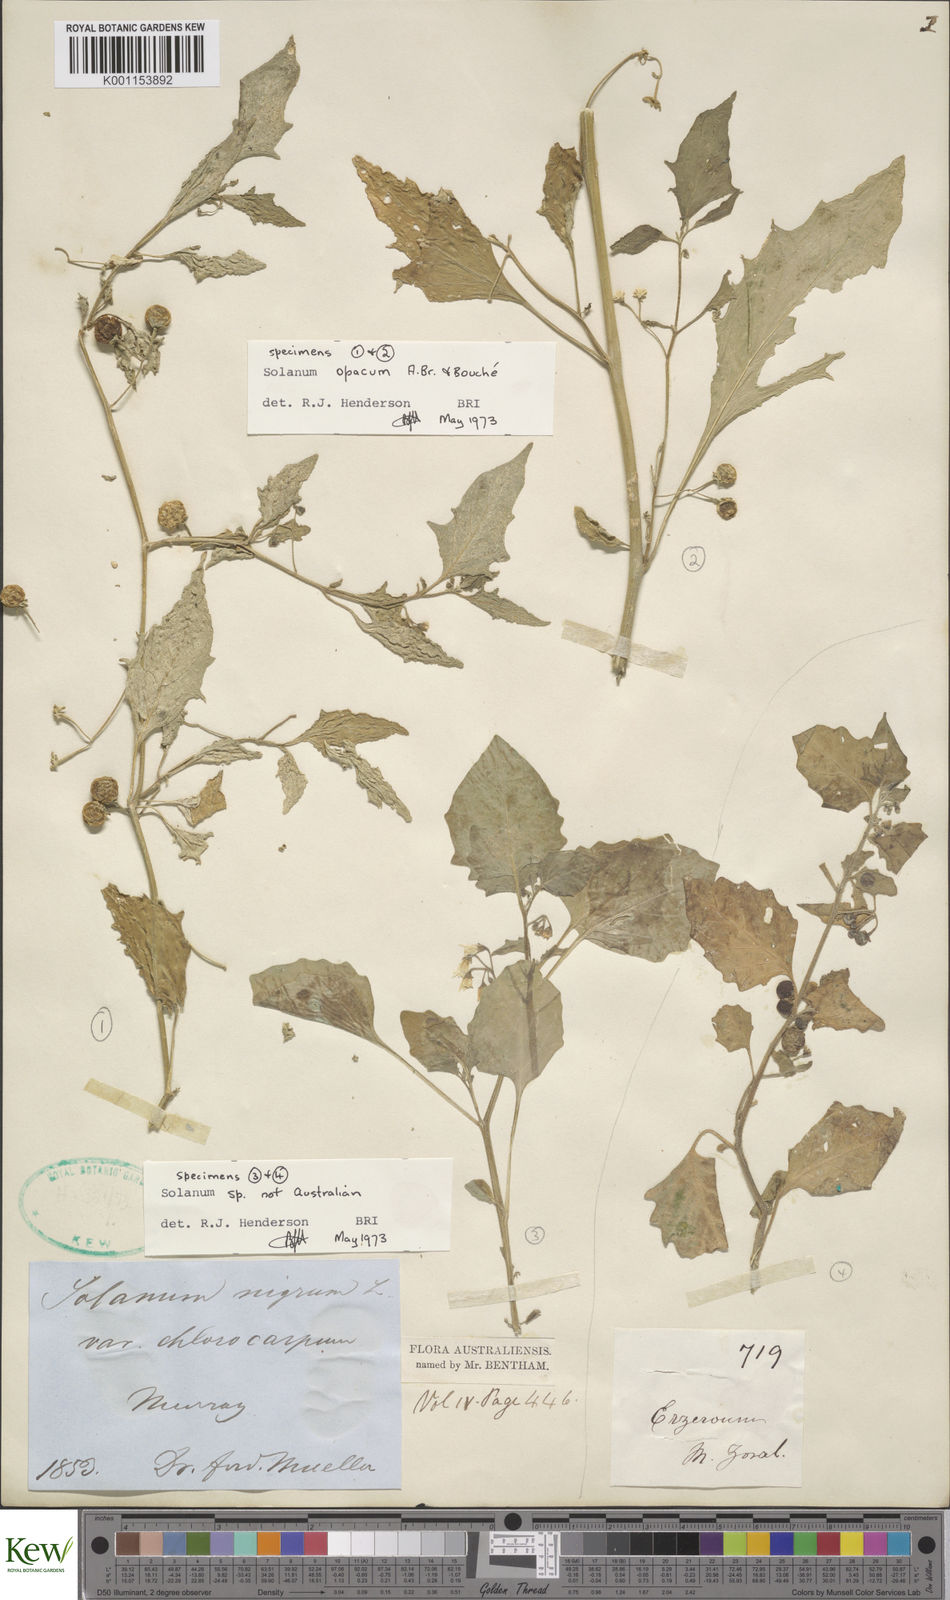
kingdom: Plantae
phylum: Tracheophyta
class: Magnoliopsida
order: Solanales
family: Solanaceae
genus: Solanum
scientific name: Solanum
